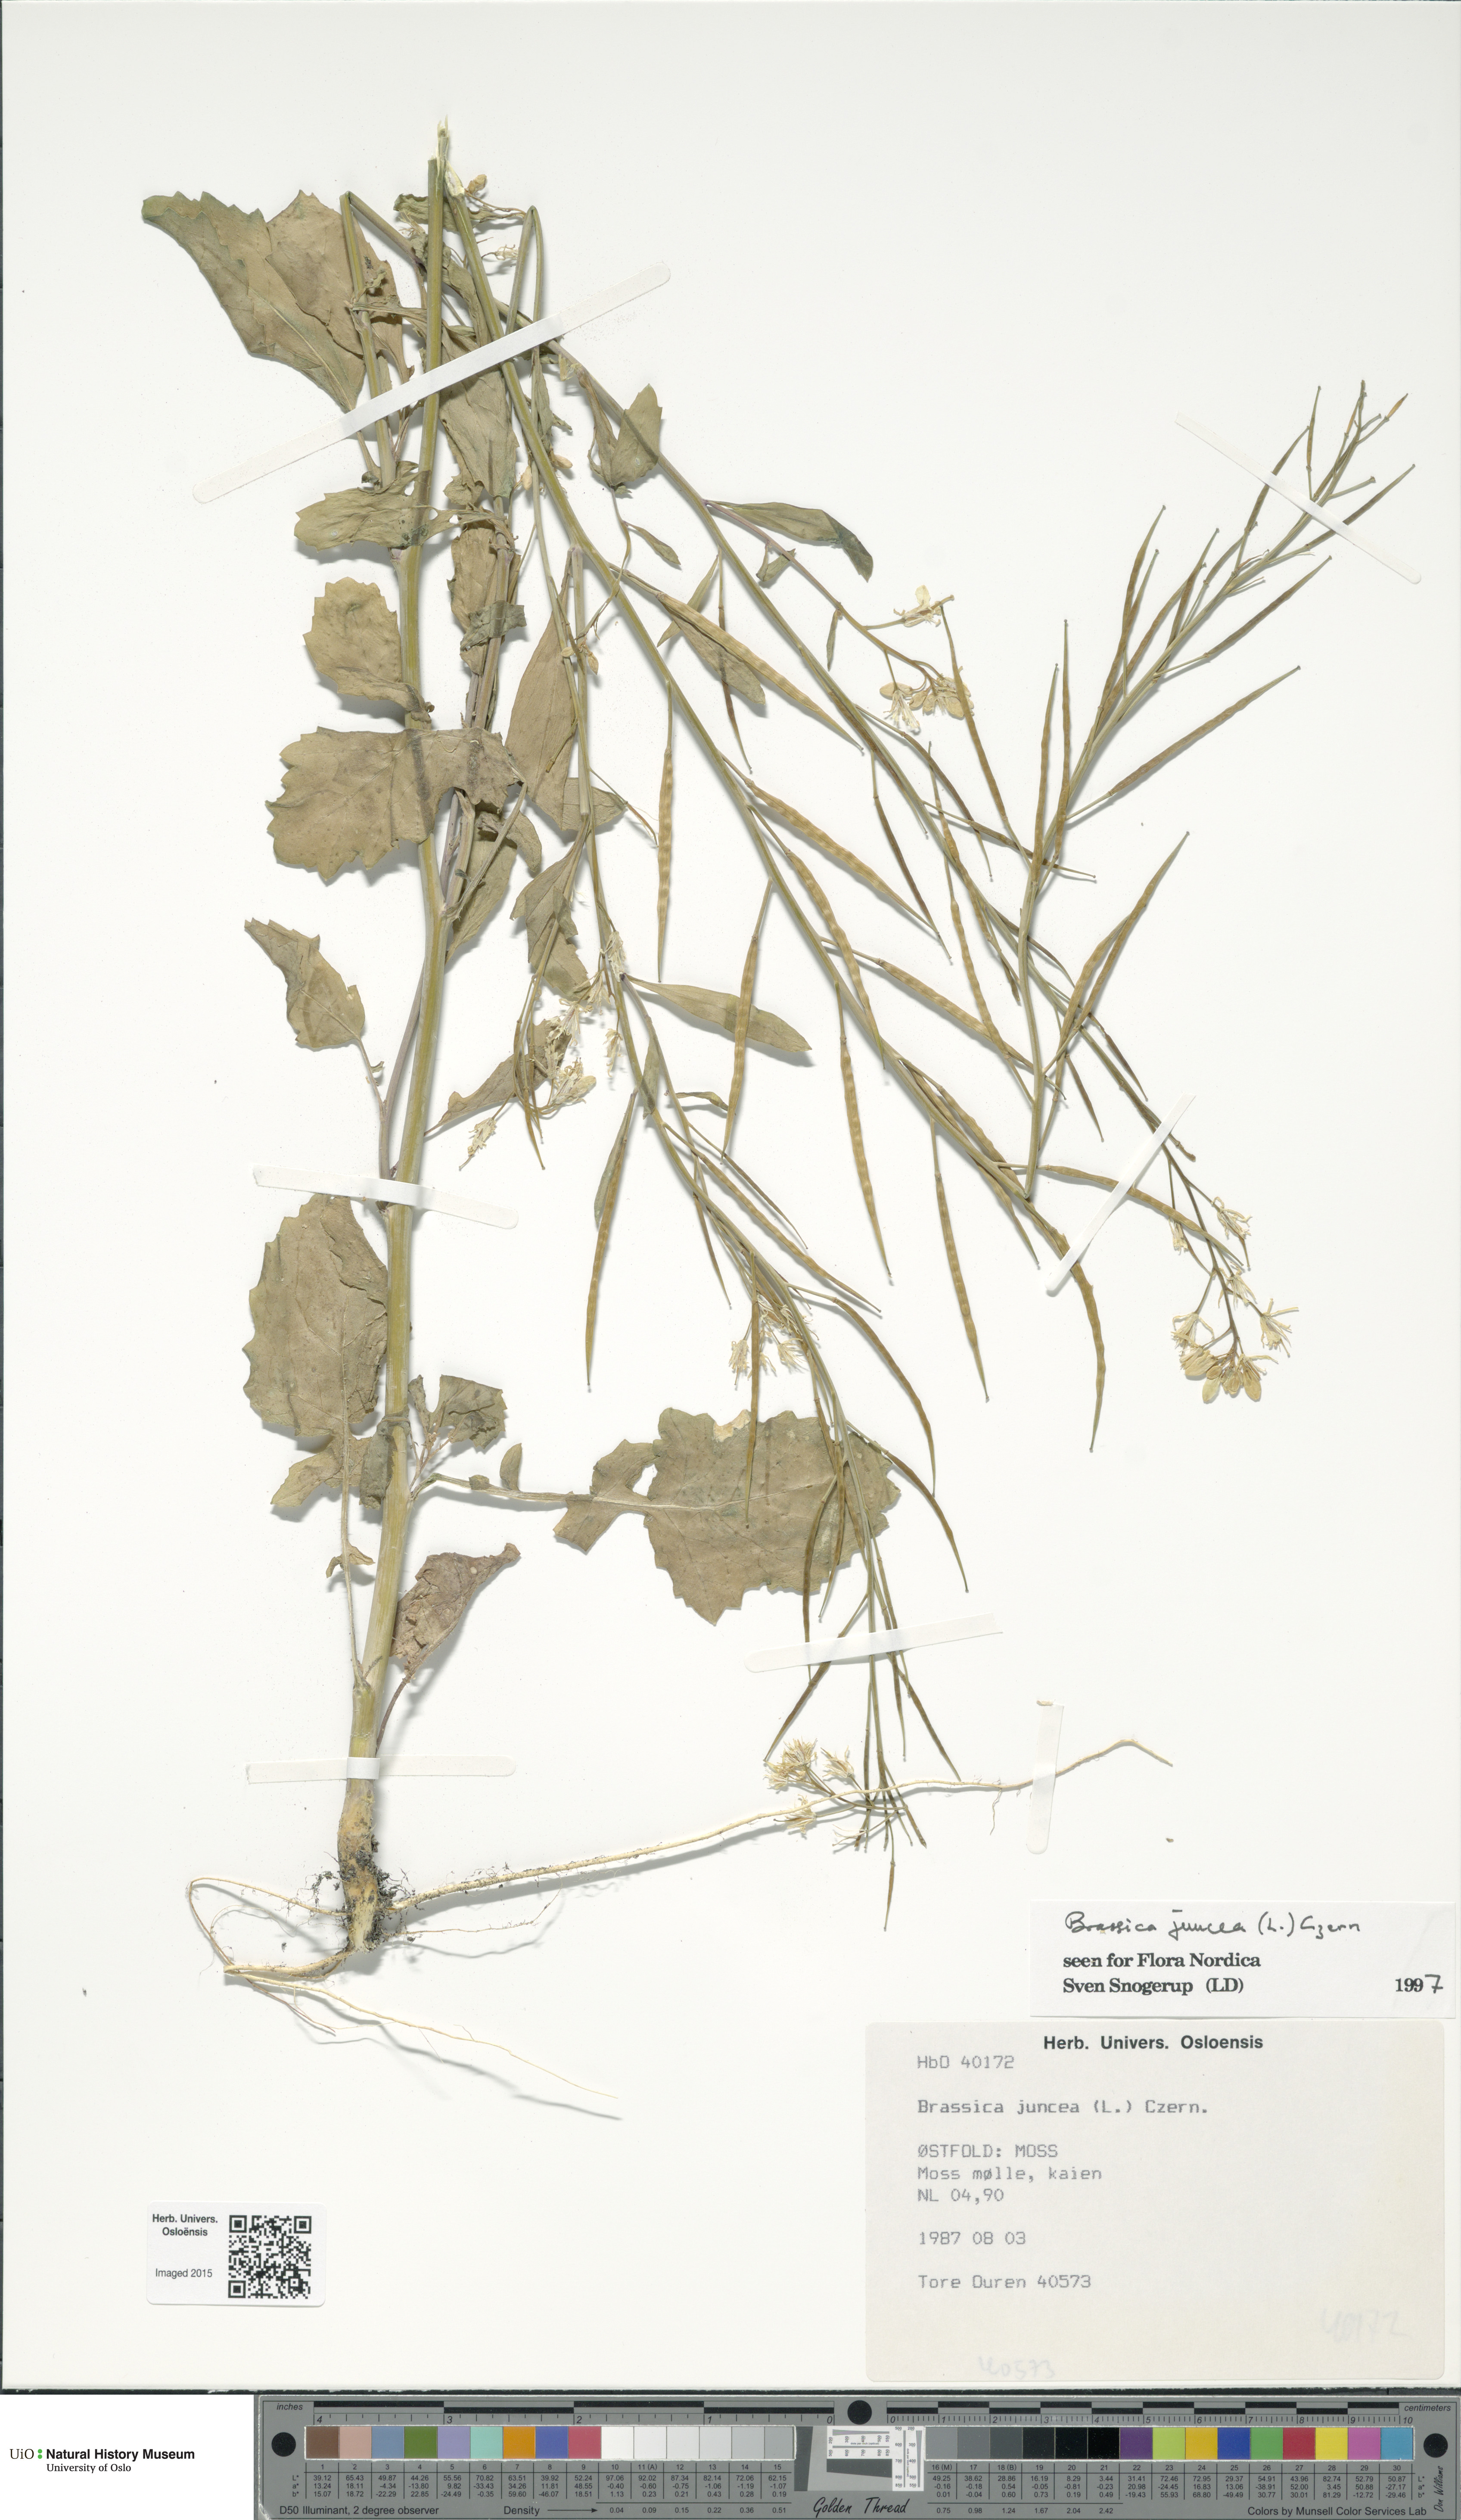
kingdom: Plantae
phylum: Tracheophyta
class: Magnoliopsida
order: Brassicales
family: Brassicaceae
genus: Brassica
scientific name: Brassica juncea
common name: Brown mustard
